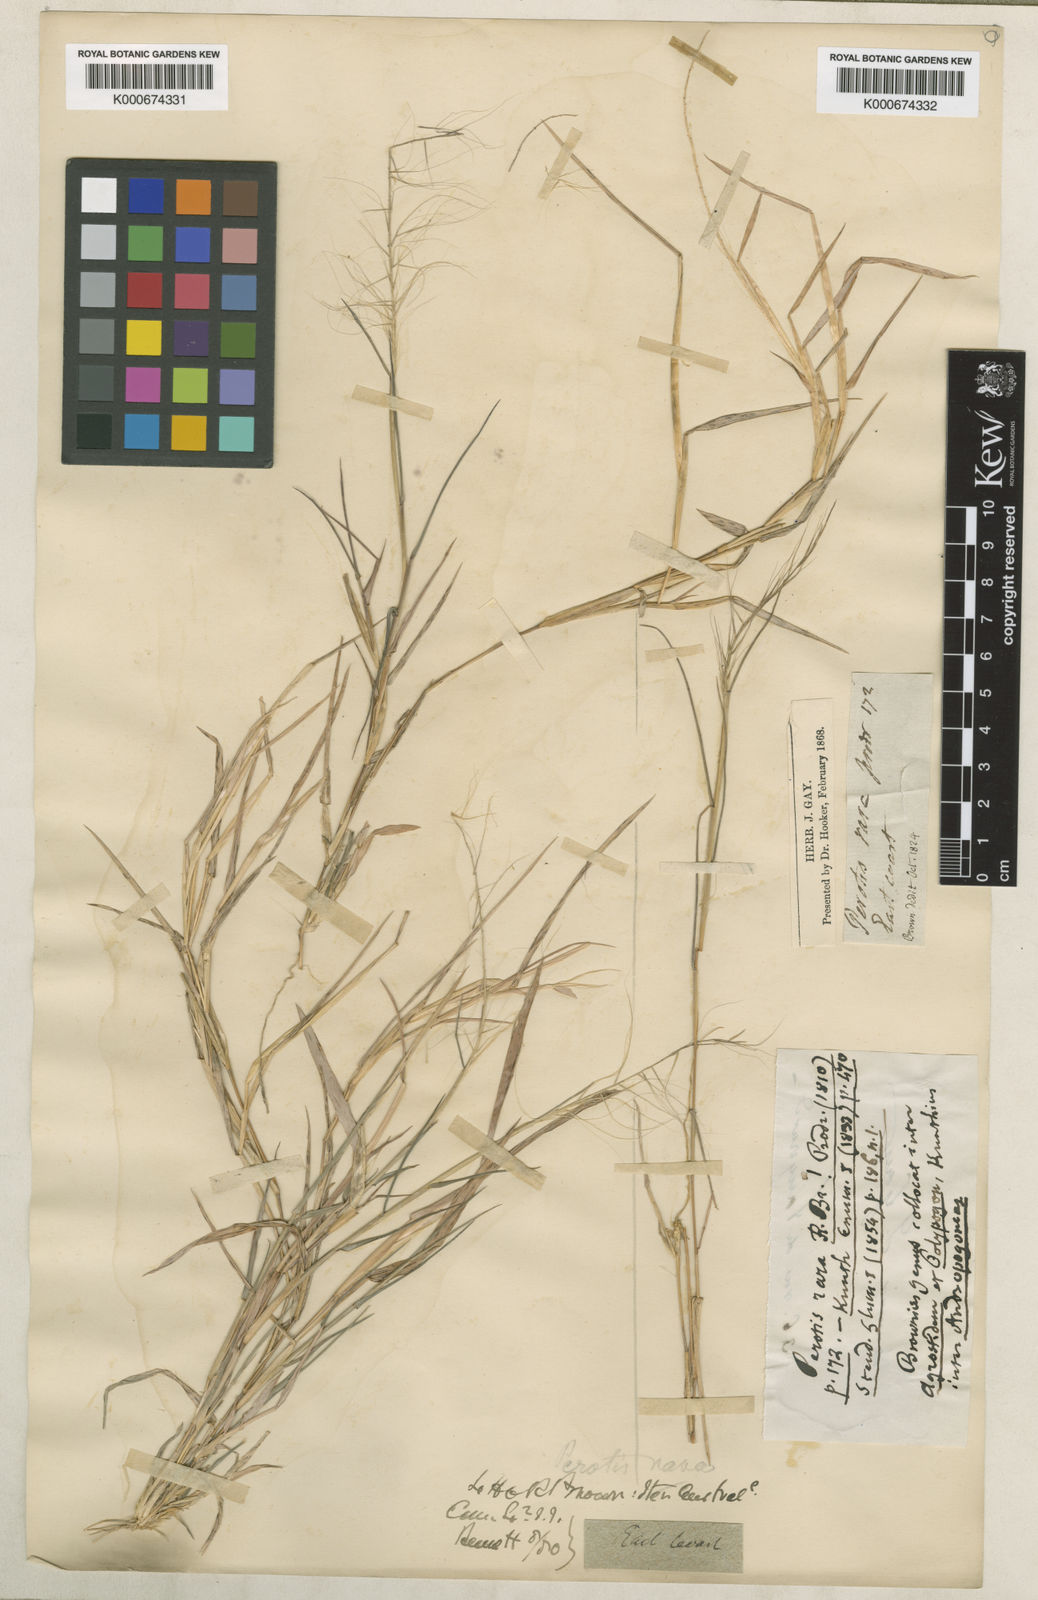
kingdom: Plantae
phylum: Tracheophyta
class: Liliopsida
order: Poales
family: Poaceae
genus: Perotis
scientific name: Perotis rara
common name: Comet grass
